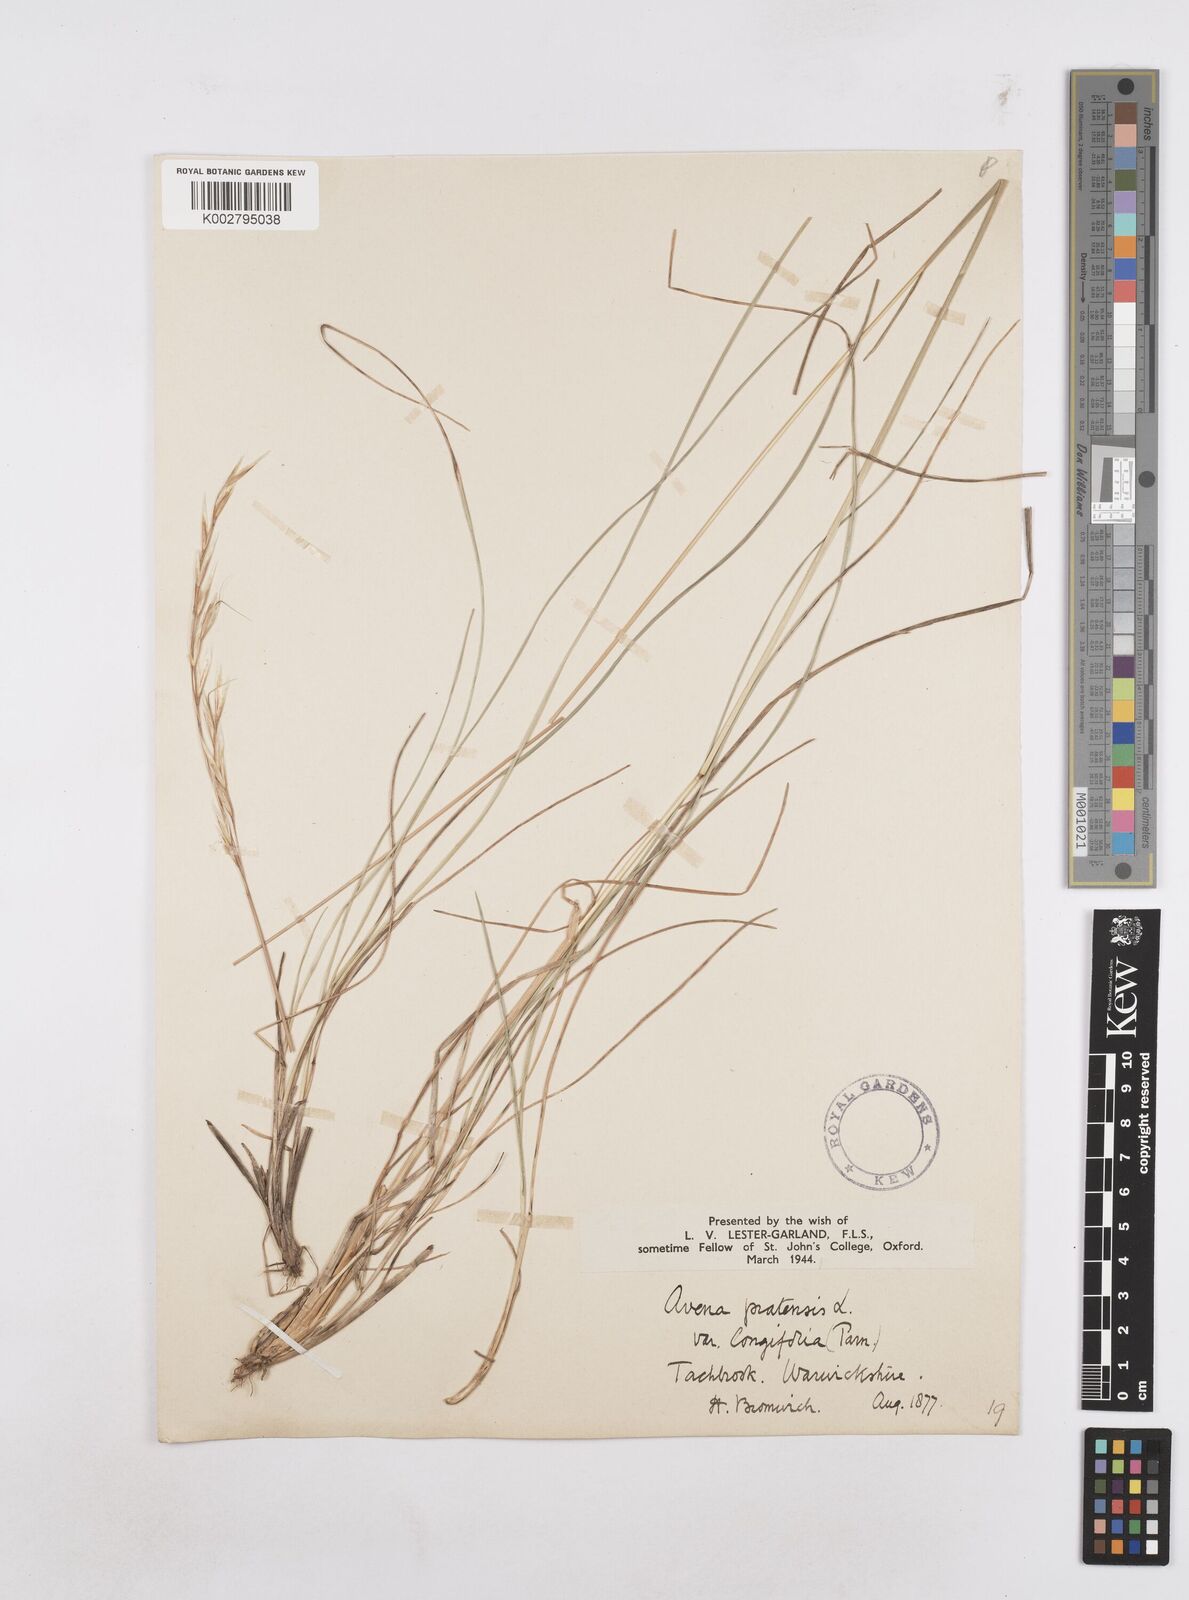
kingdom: Plantae
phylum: Tracheophyta
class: Liliopsida
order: Poales
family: Poaceae
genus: Helictochloa
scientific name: Helictochloa pratensis
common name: Meadow oat grass
